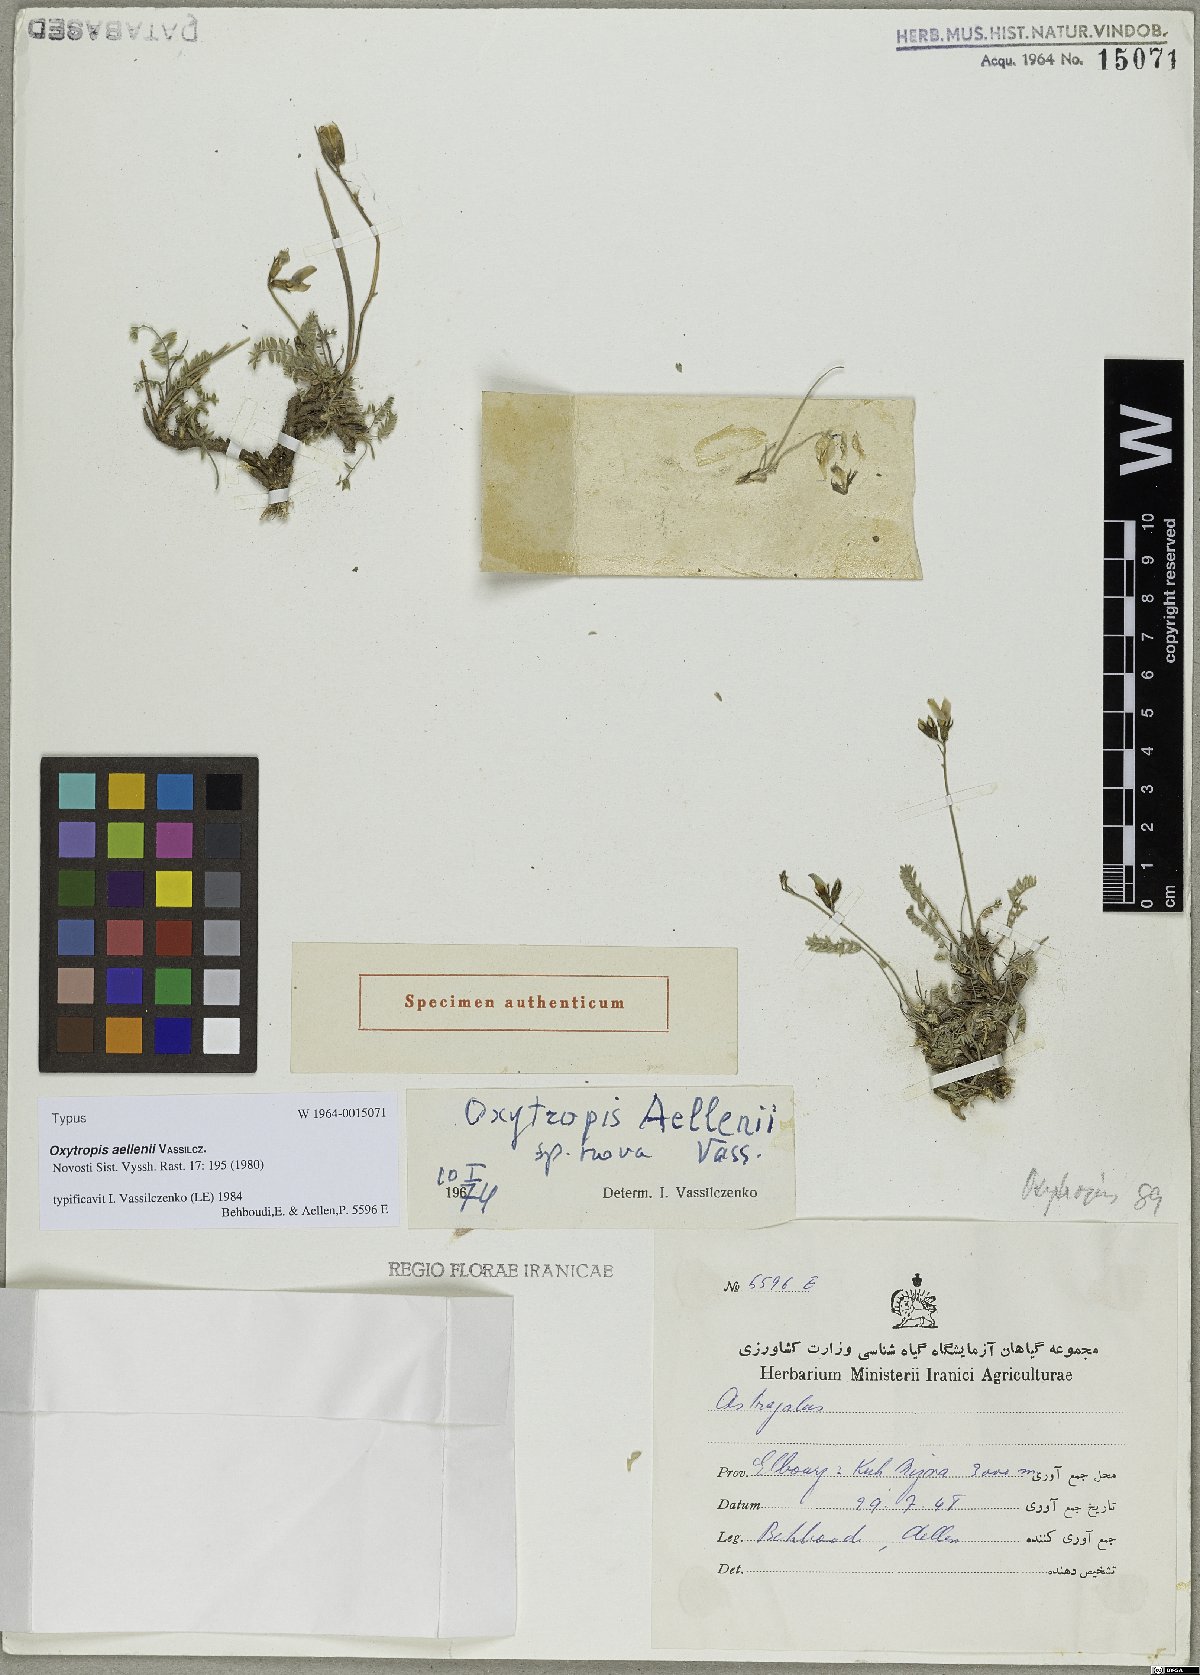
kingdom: Plantae
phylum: Tracheophyta
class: Magnoliopsida
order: Fabales
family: Fabaceae
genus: Oxytropis
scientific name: Oxytropis aellenii
